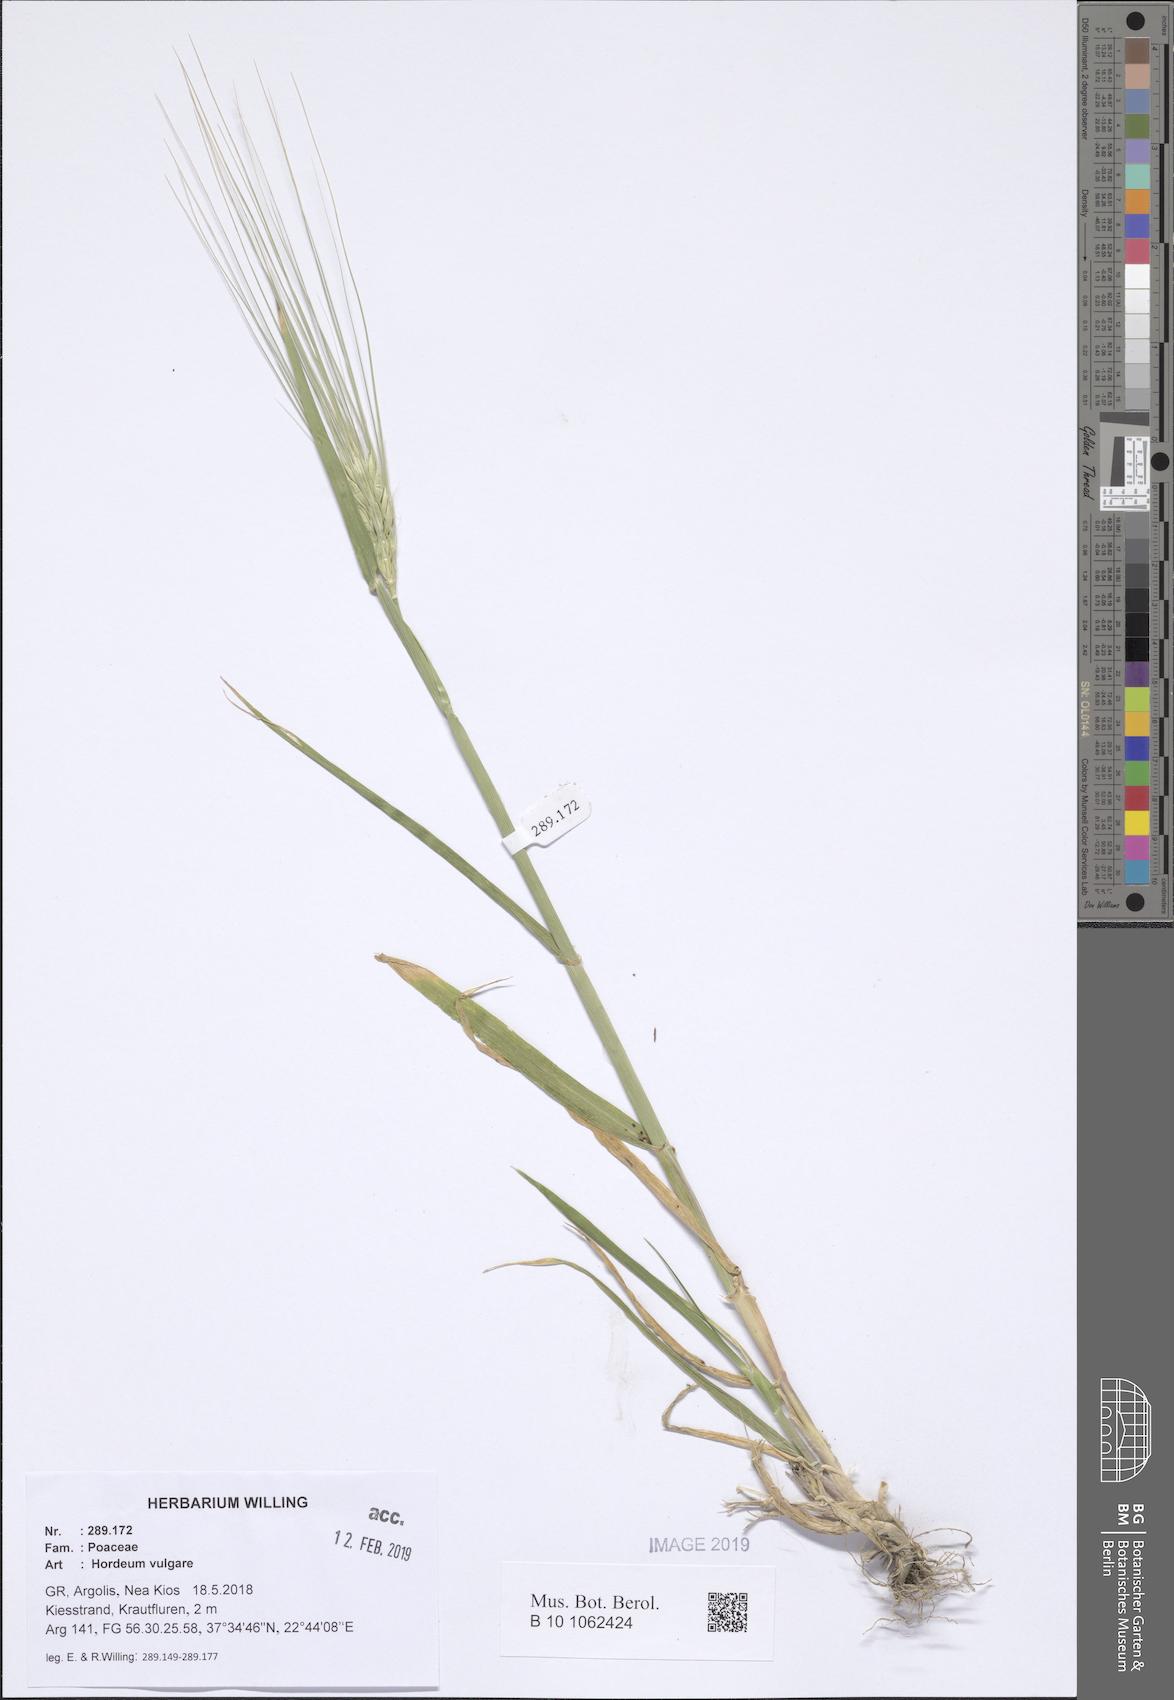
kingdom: Plantae
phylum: Tracheophyta
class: Liliopsida
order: Poales
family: Poaceae
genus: Hordeum
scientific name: Hordeum vulgare
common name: Common barley
